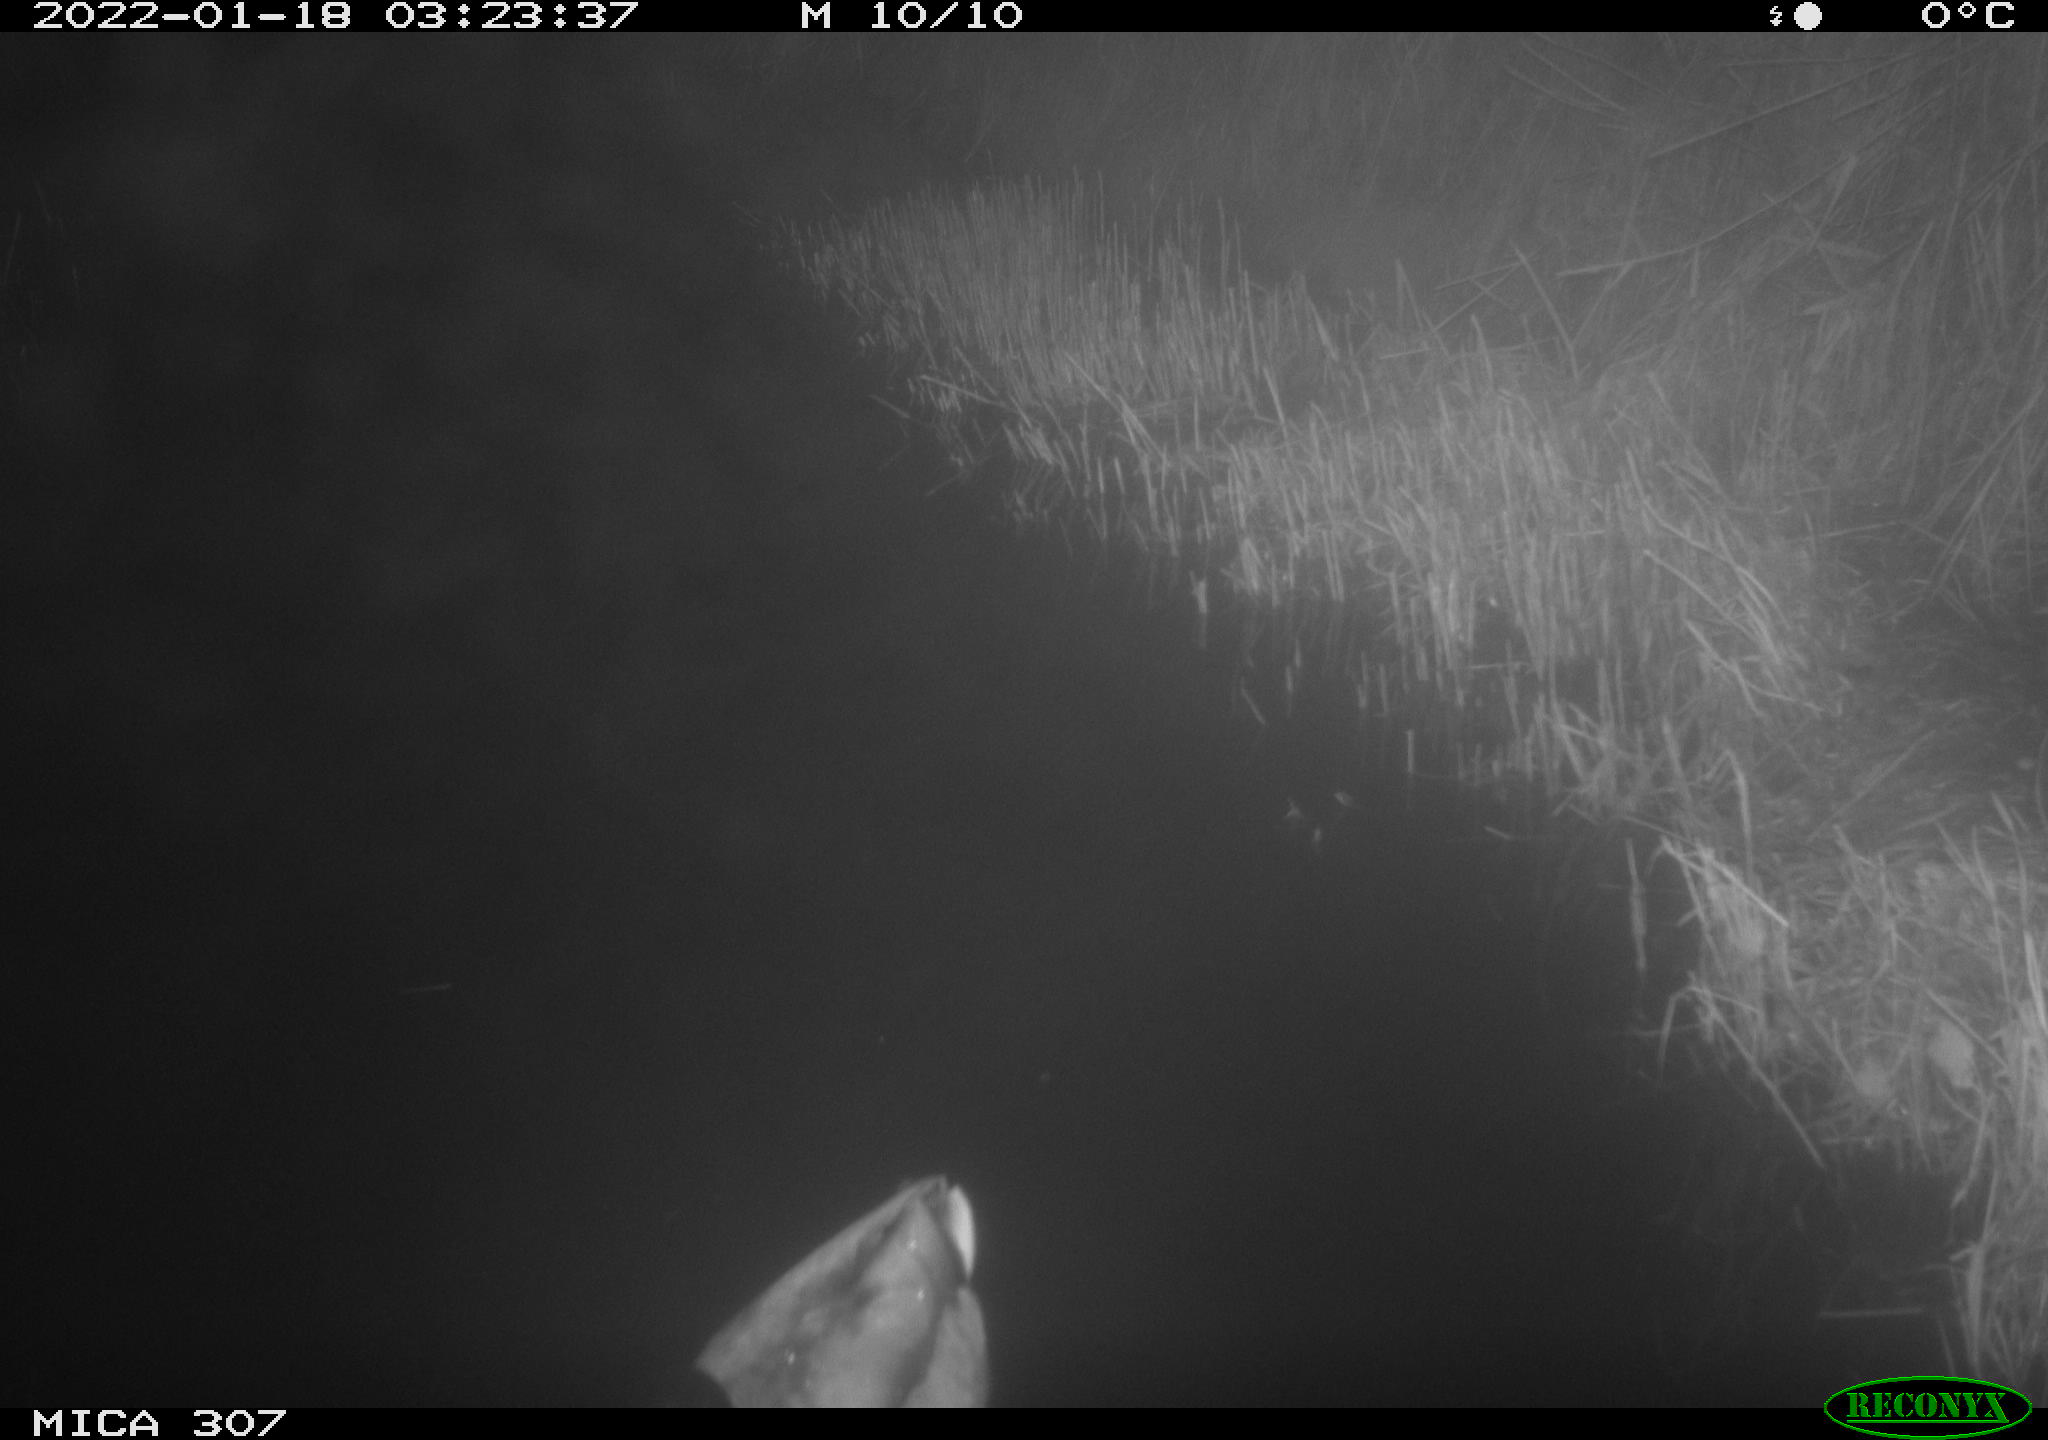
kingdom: Animalia
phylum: Chordata
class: Aves
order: Anseriformes
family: Anatidae
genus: Anas
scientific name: Anas
